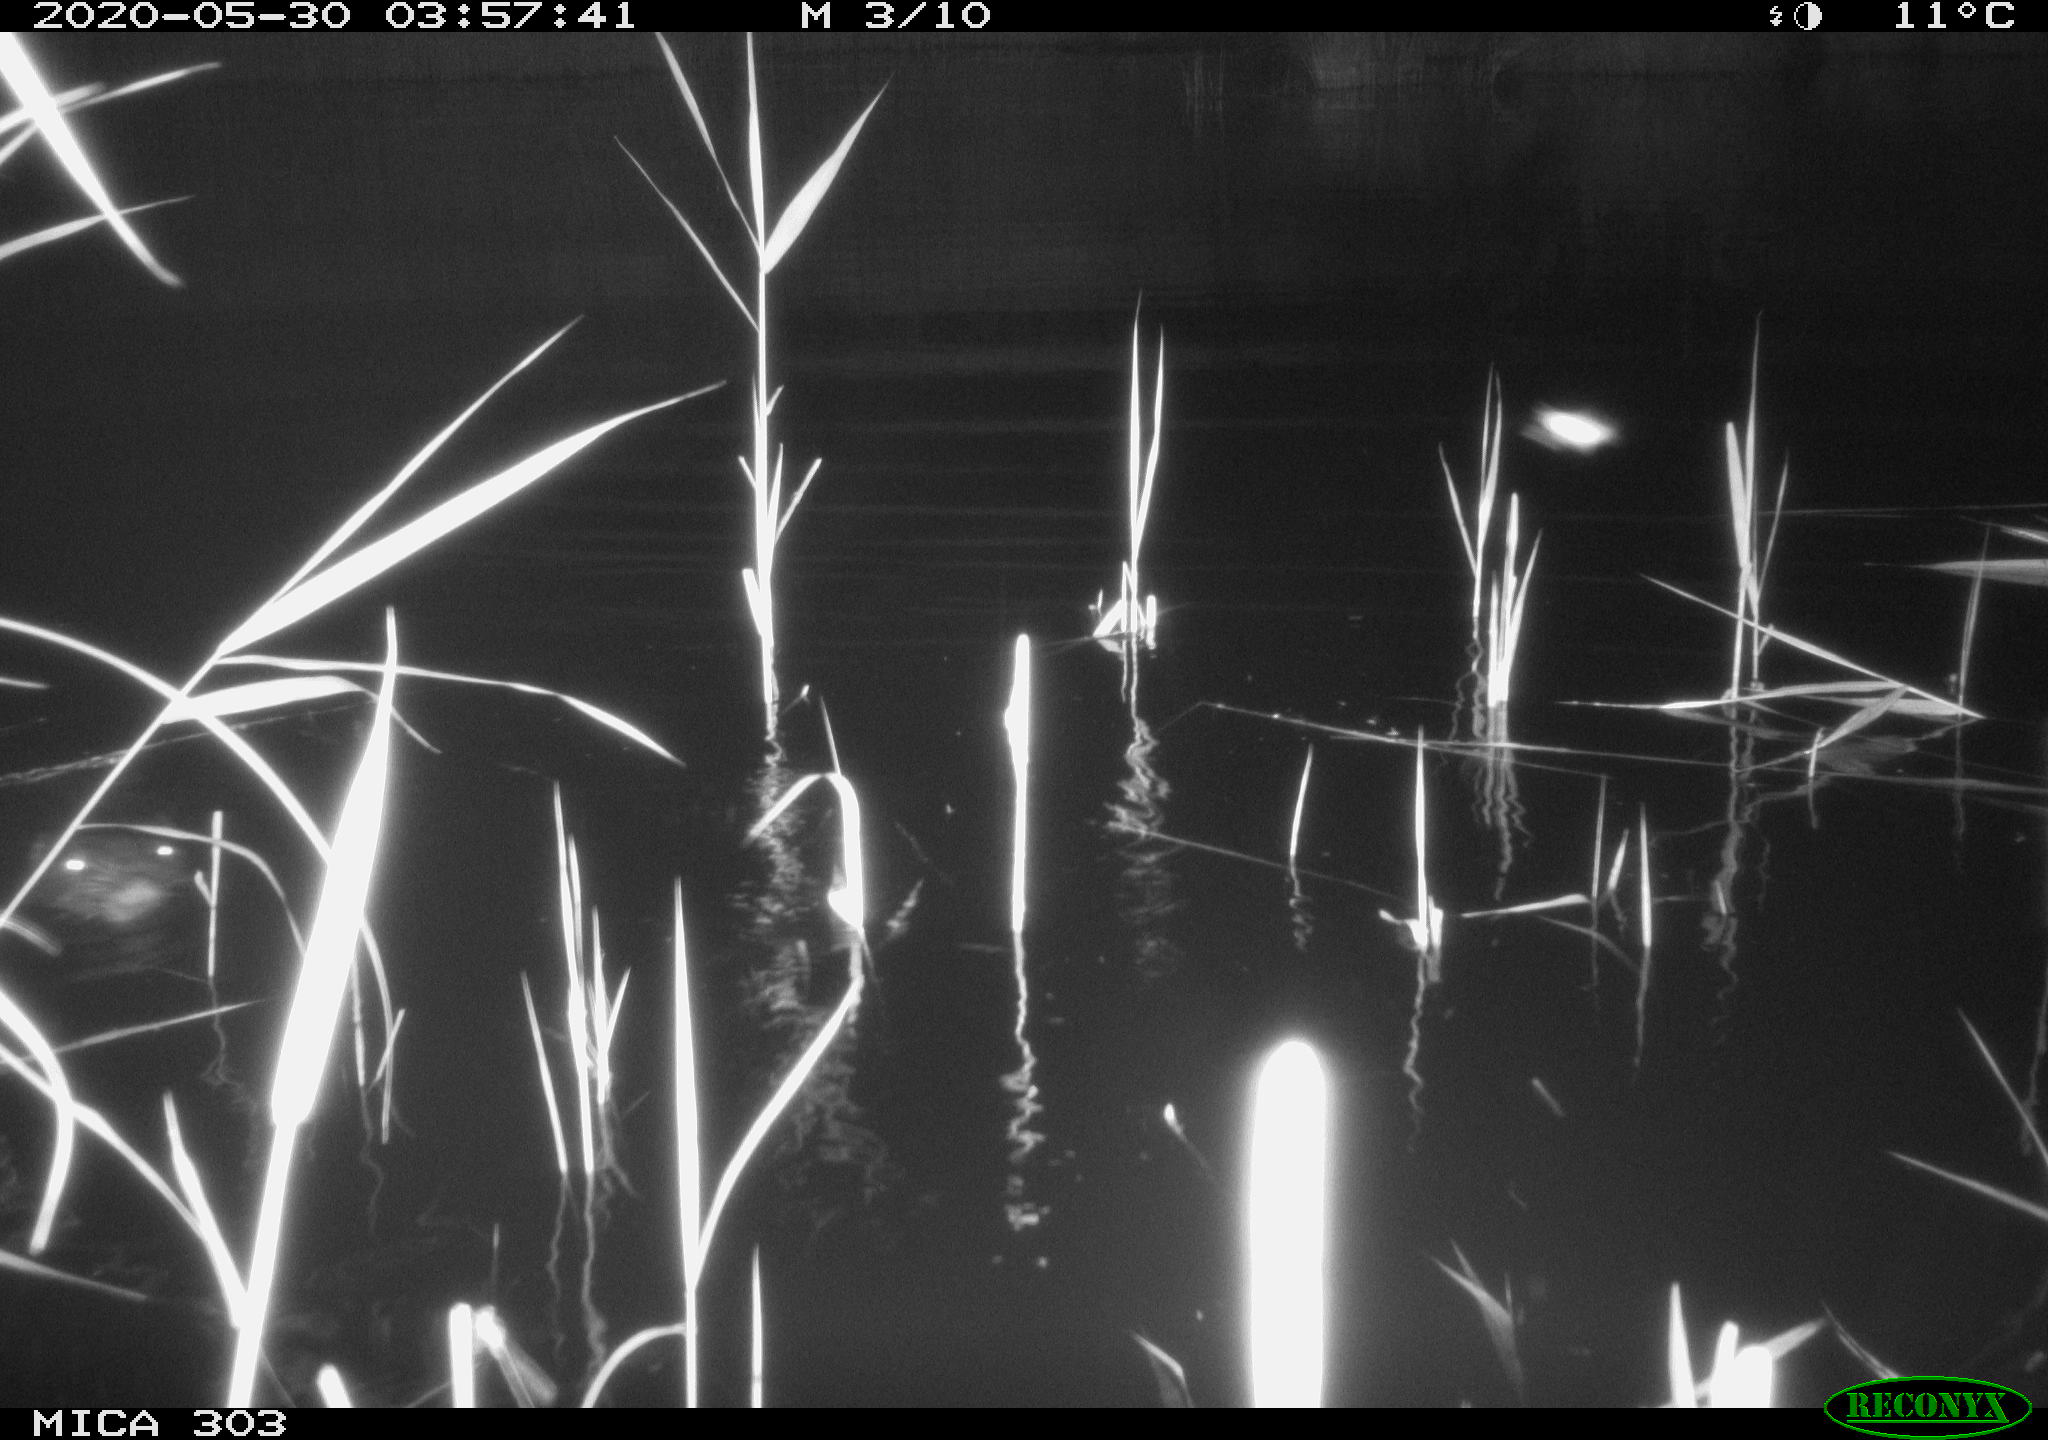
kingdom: Animalia
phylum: Chordata
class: Mammalia
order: Rodentia
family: Castoridae
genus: Castor
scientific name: Castor fiber
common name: Eurasian beaver
